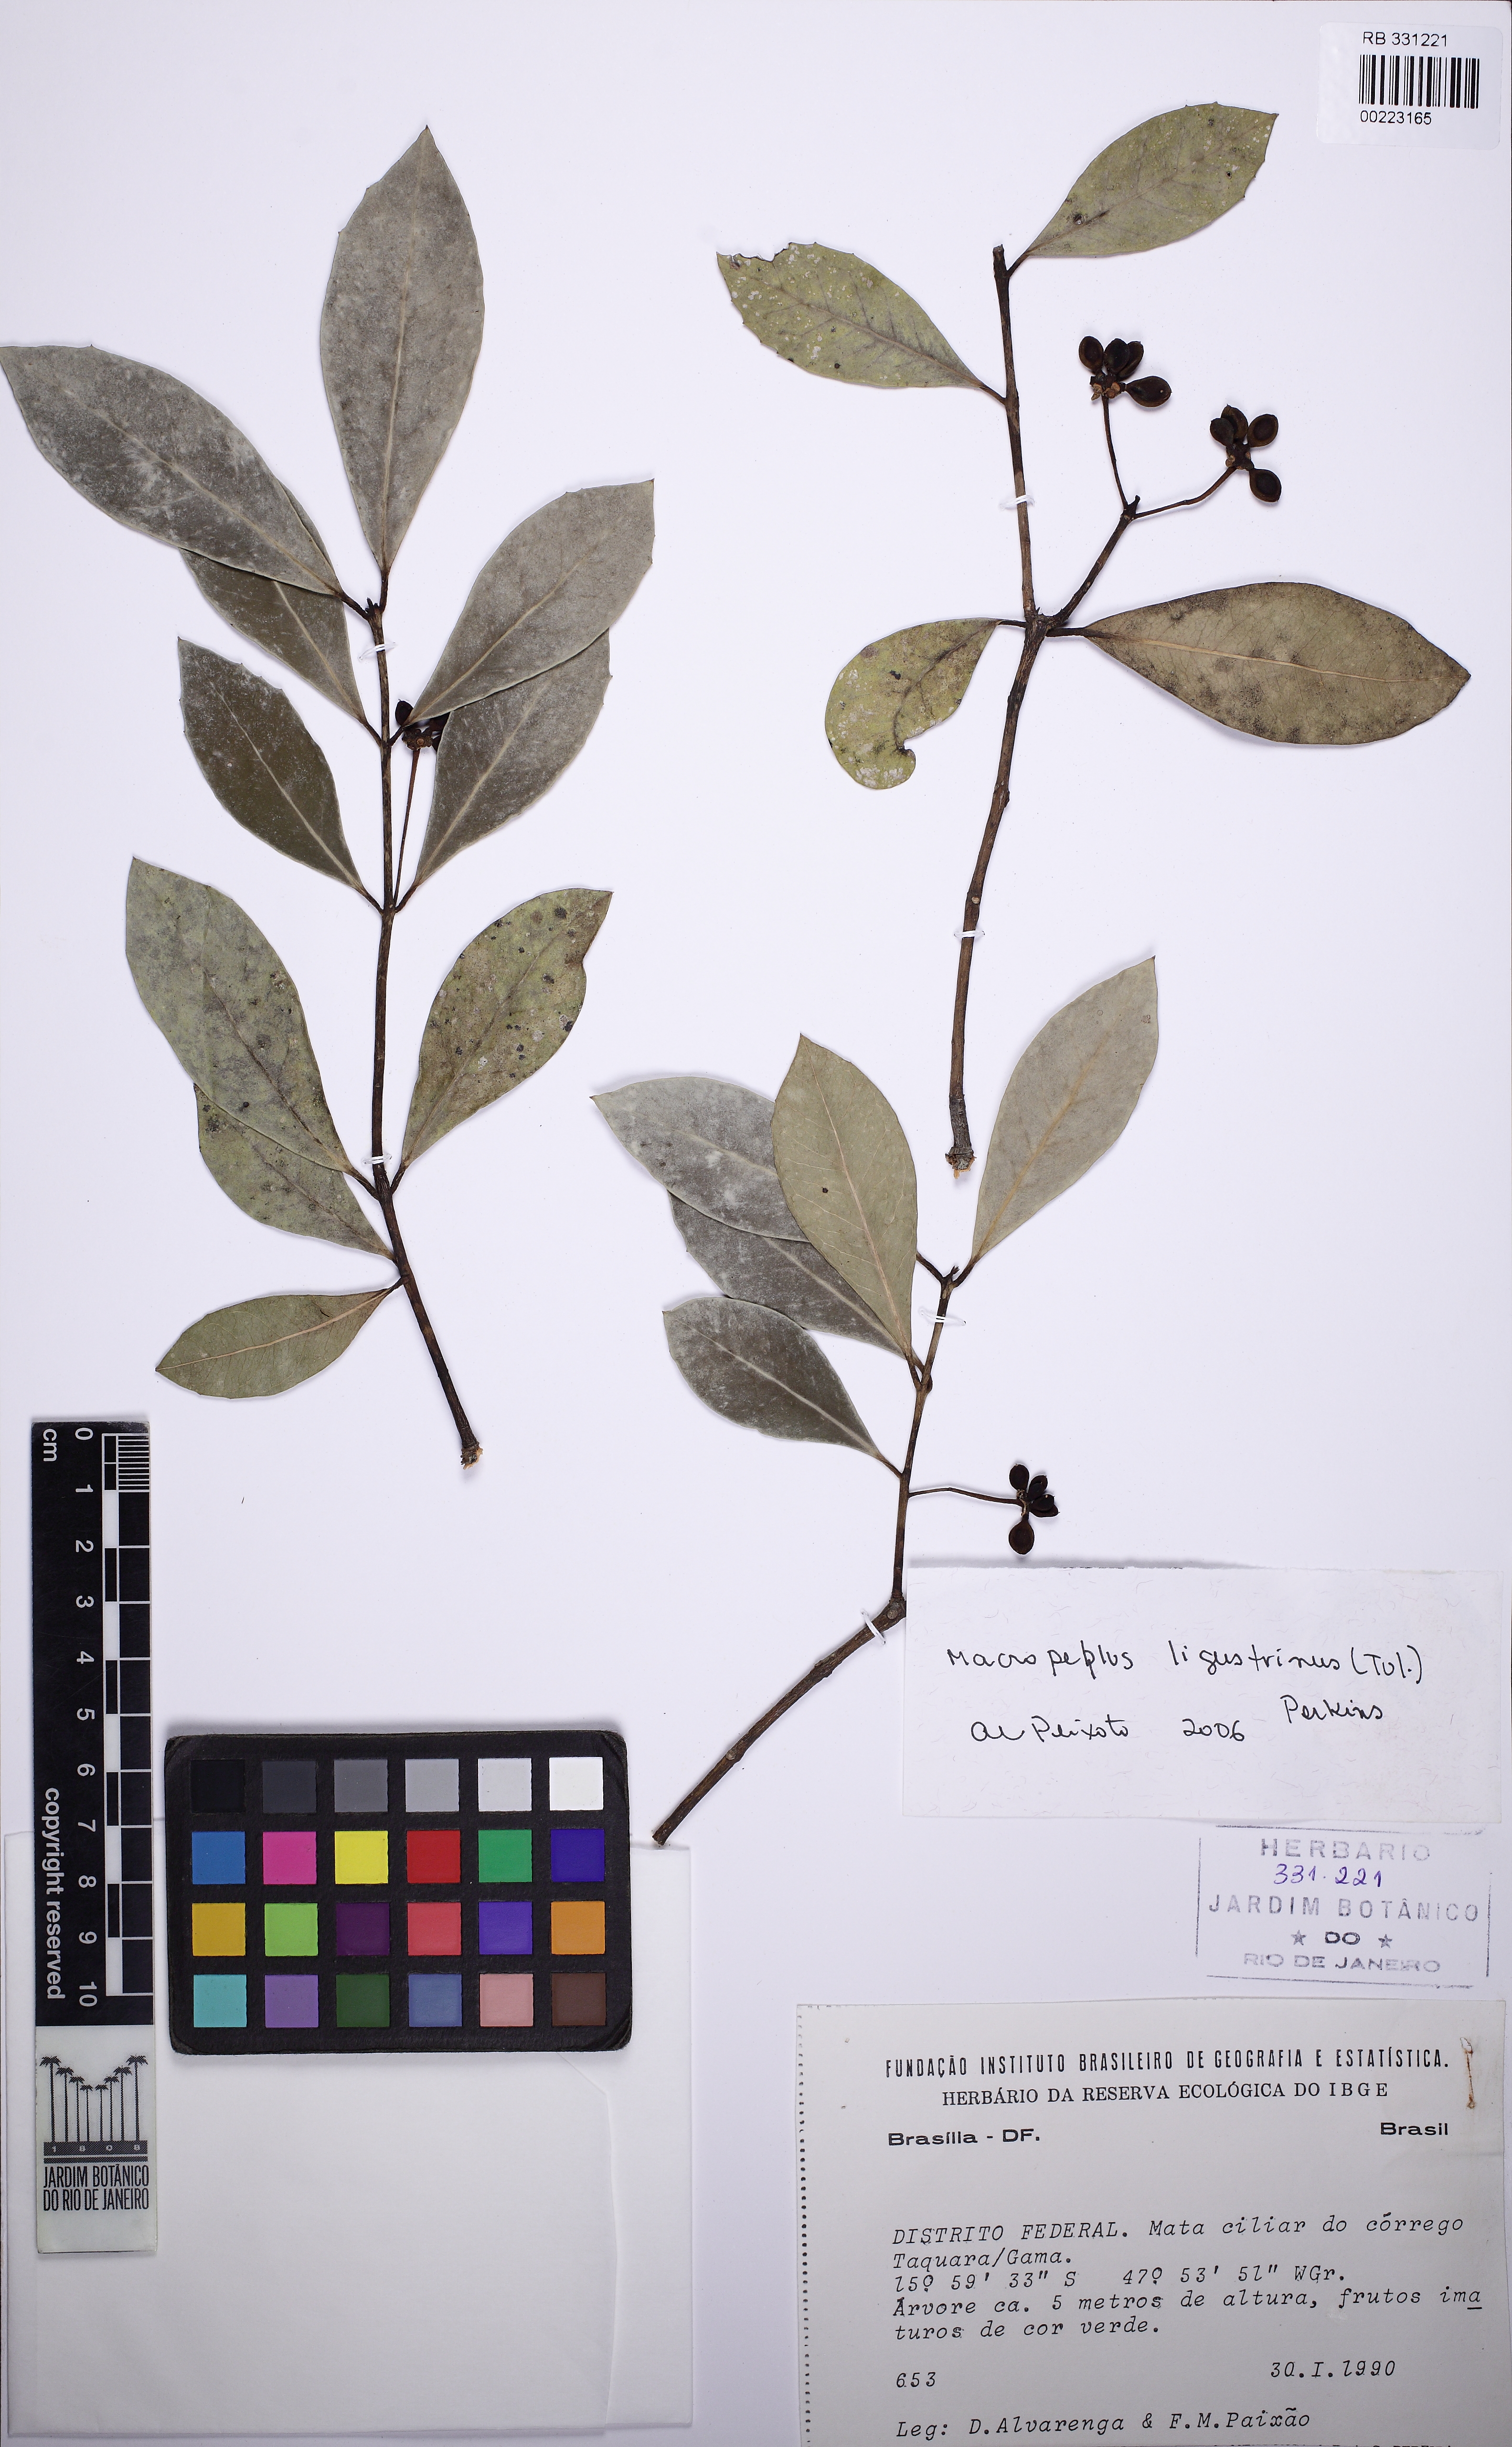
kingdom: Plantae
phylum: Tracheophyta
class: Magnoliopsida
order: Laurales
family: Monimiaceae
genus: Macropeplus
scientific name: Macropeplus ligustrinus
